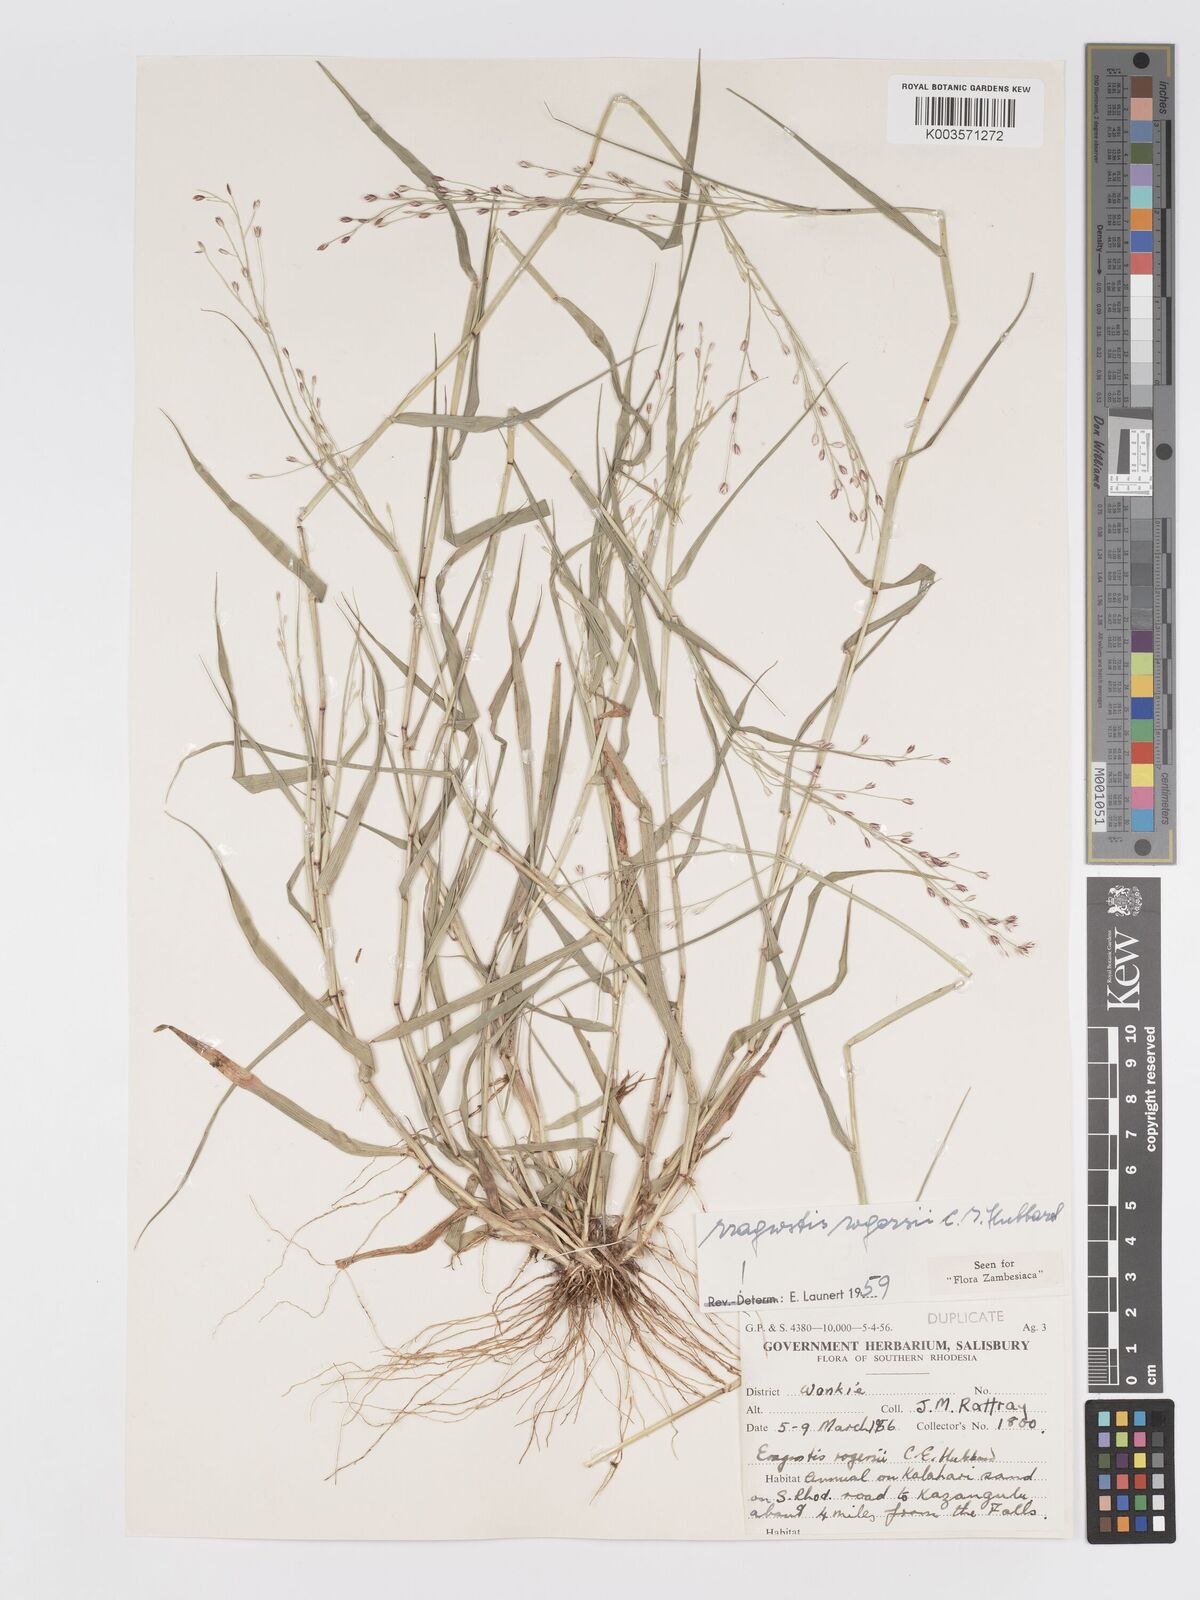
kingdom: Plantae
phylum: Tracheophyta
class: Liliopsida
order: Poales
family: Poaceae
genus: Eragrostis
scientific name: Eragrostis rogersii
